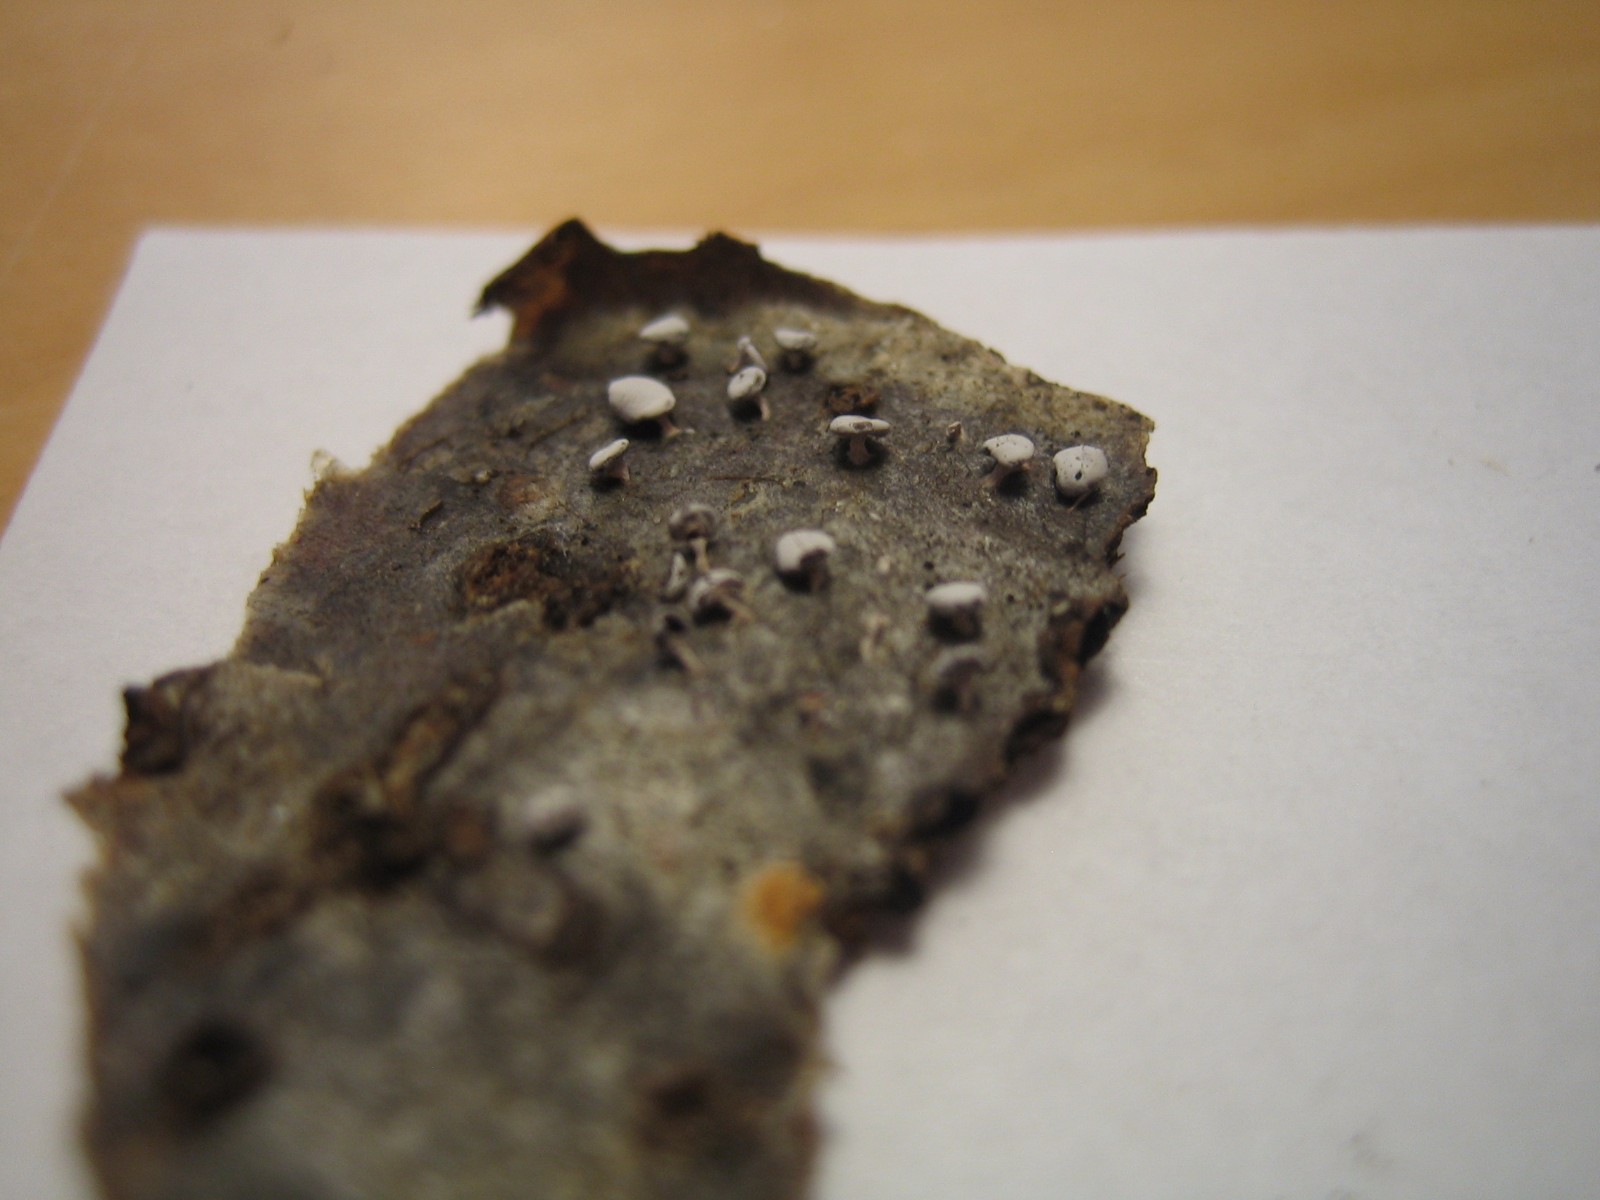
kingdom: Protozoa
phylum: Mycetozoa
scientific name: Mycetozoa
